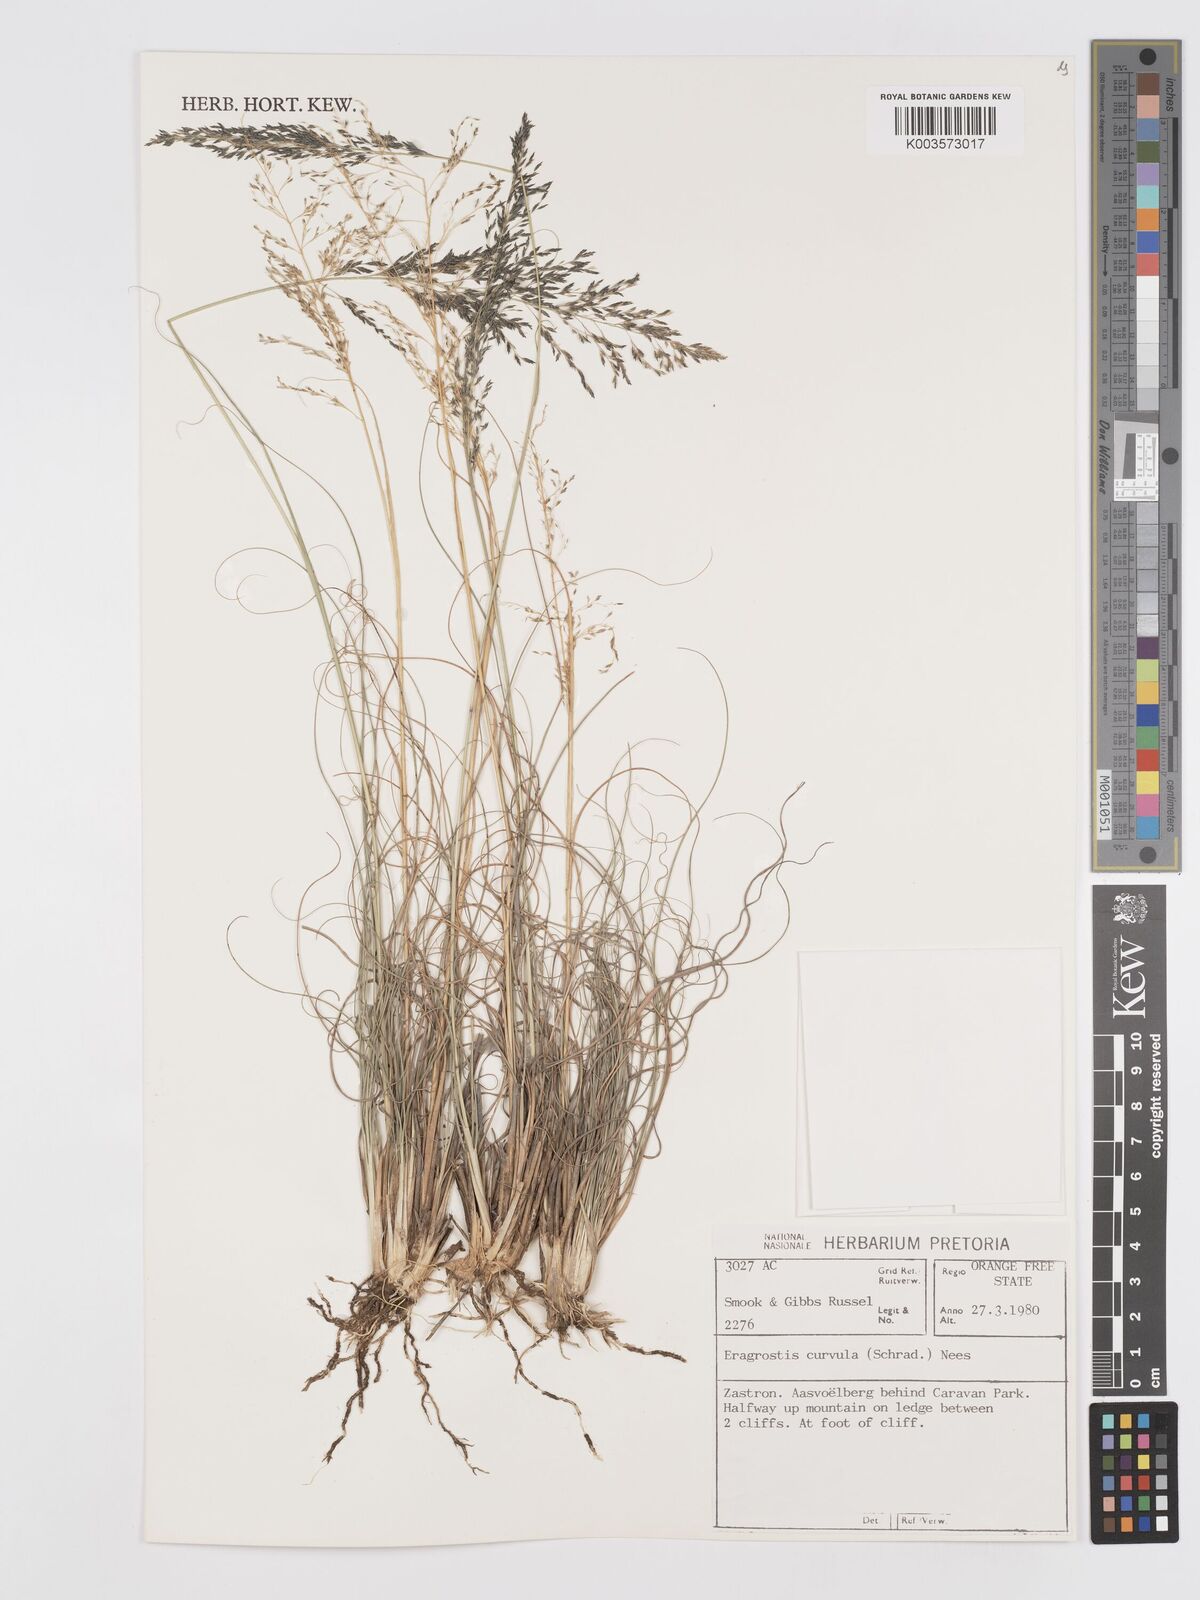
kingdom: Plantae
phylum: Tracheophyta
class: Liliopsida
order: Poales
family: Poaceae
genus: Eragrostis
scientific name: Eragrostis curvula
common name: African love-grass
